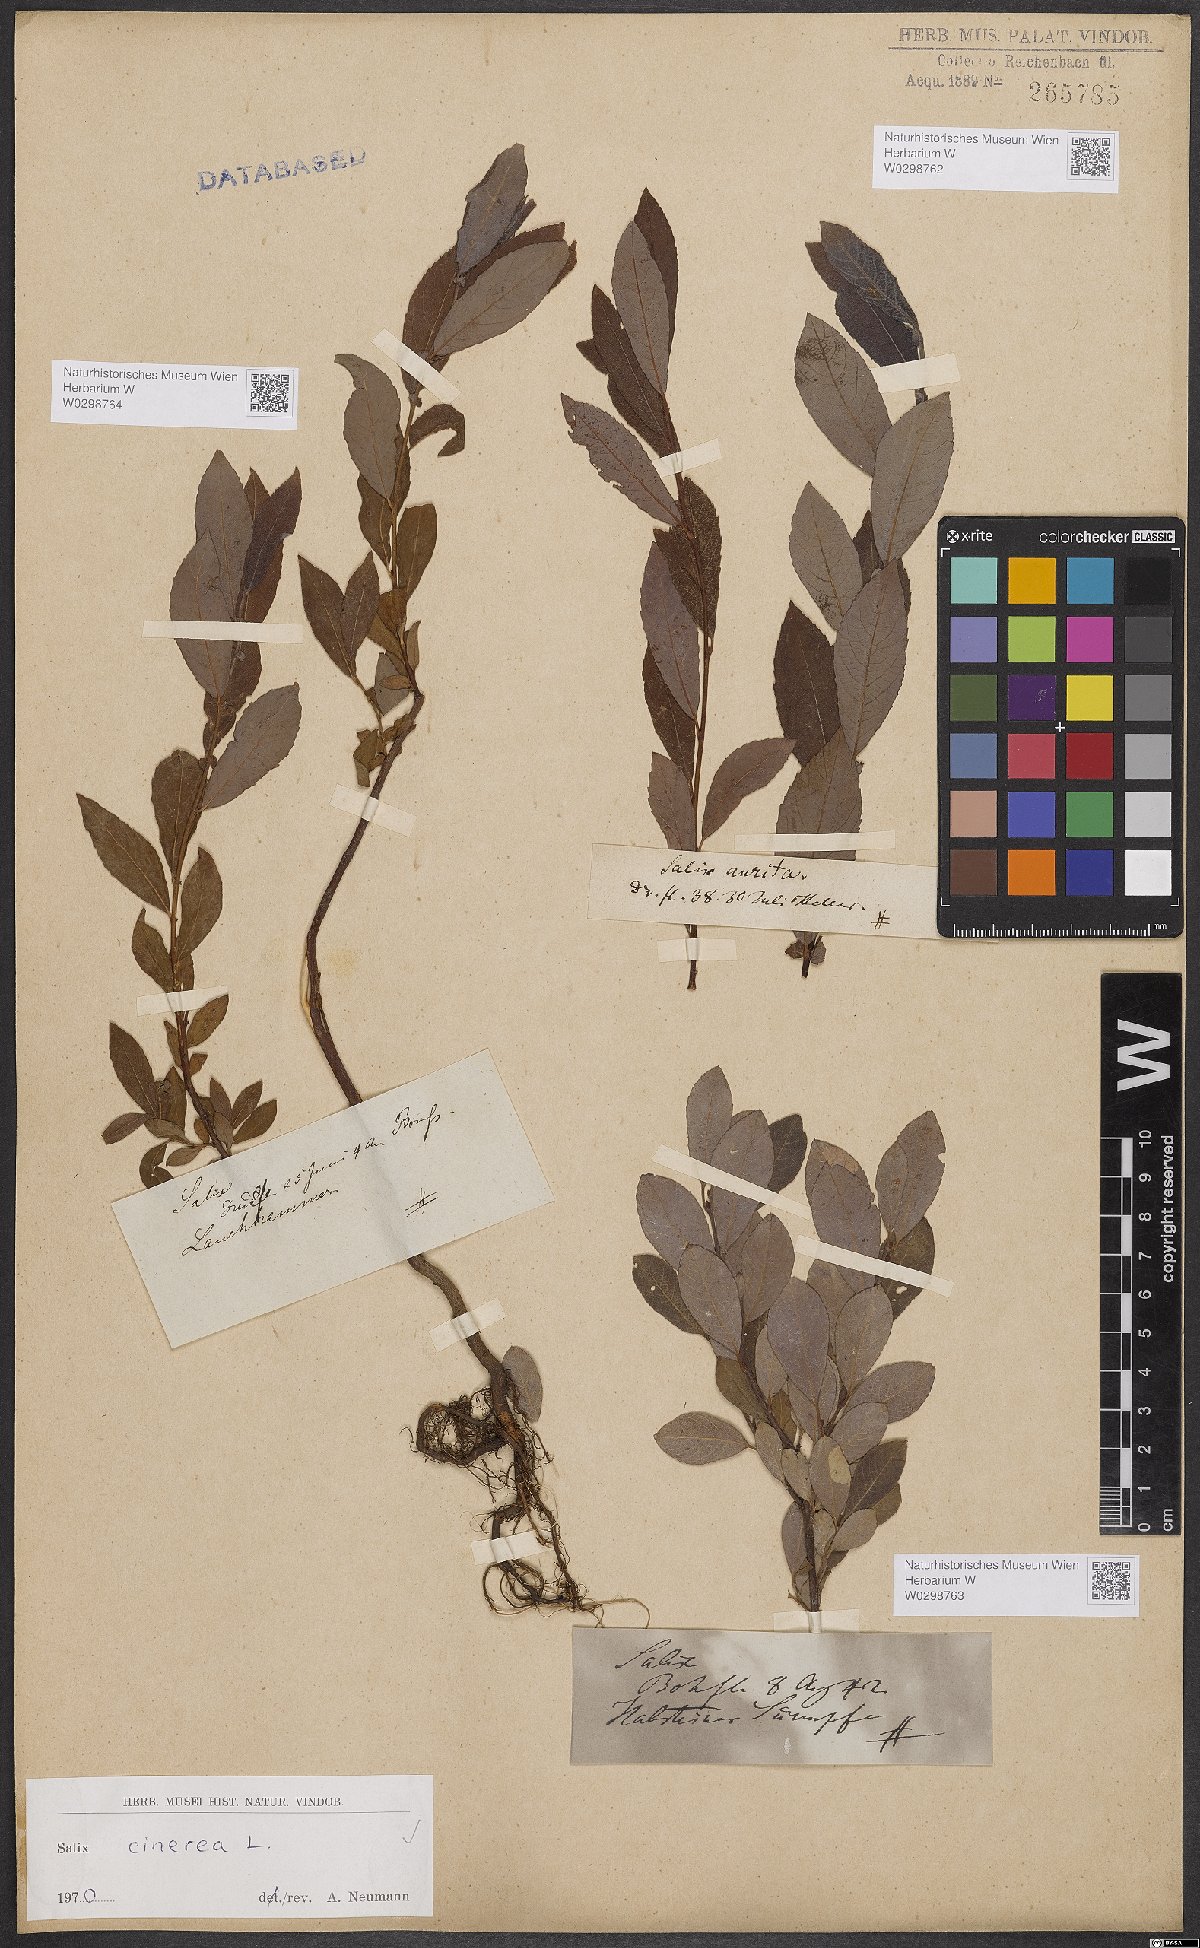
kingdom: Plantae
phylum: Tracheophyta
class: Magnoliopsida
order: Malpighiales
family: Salicaceae
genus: Salix
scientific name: Salix cinerea
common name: Common sallow
